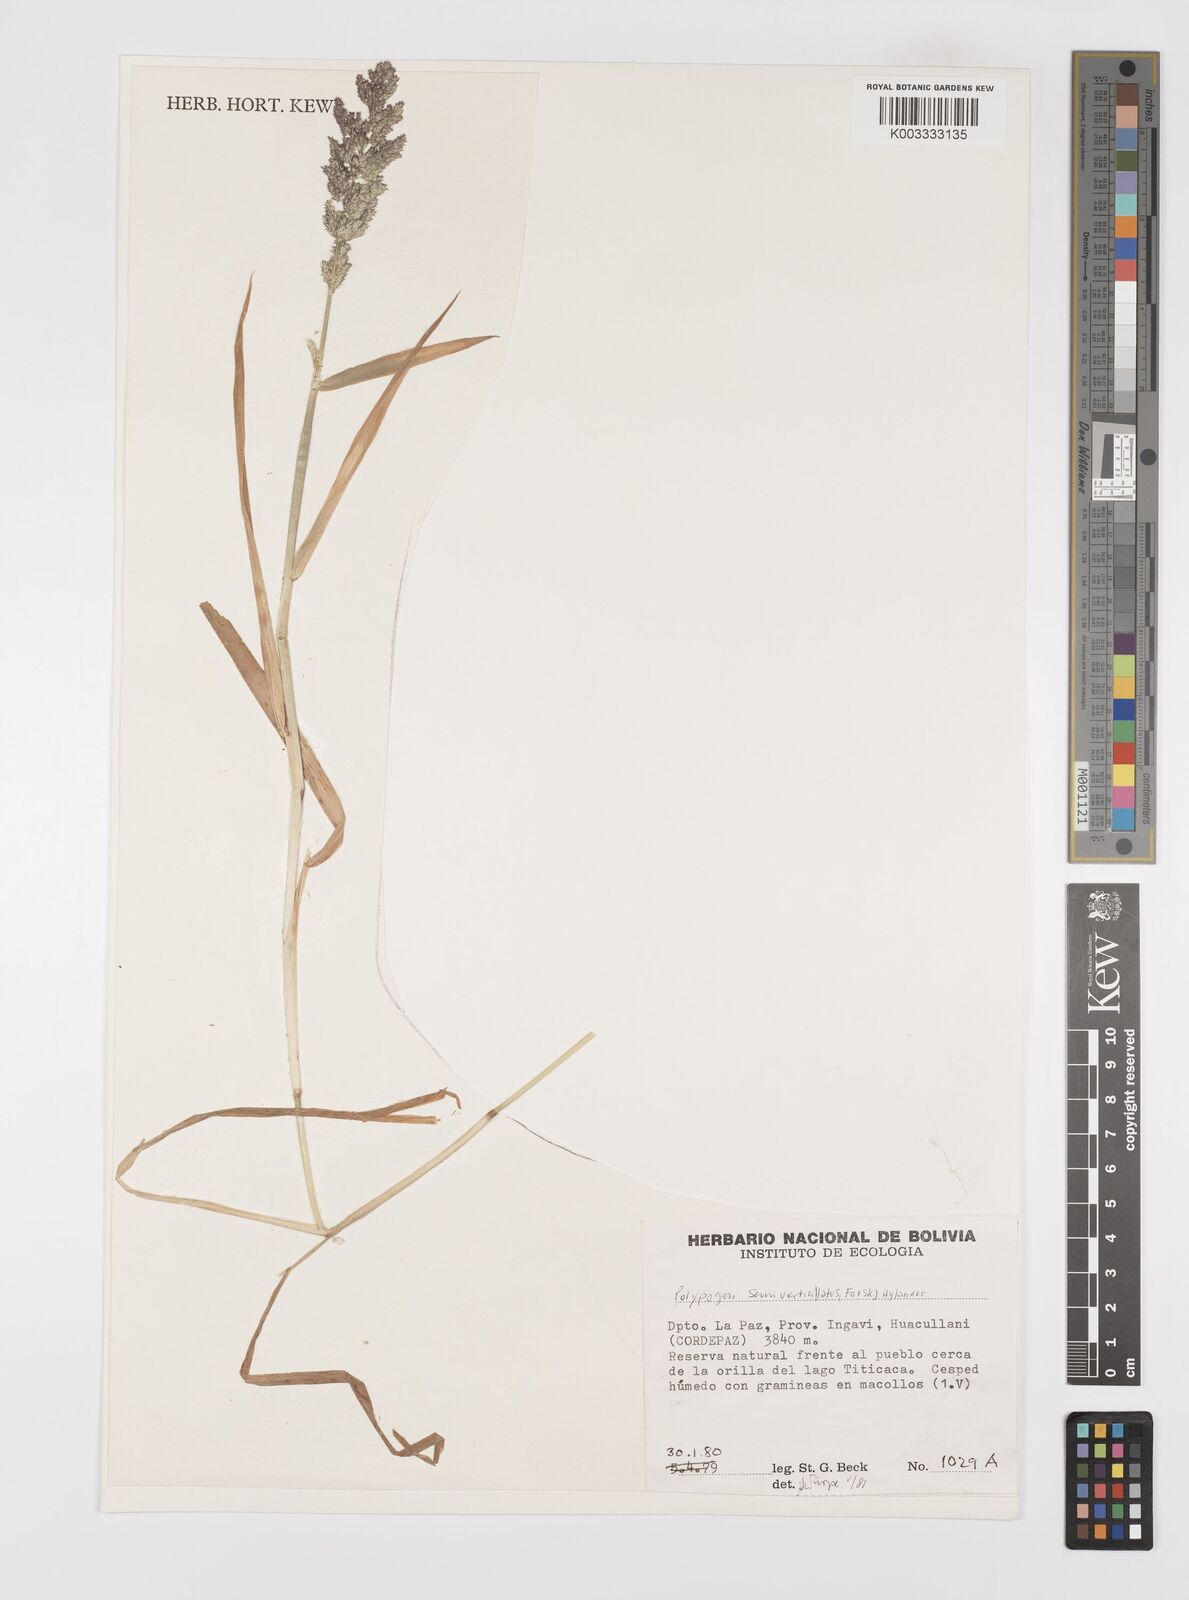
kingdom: Plantae
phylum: Tracheophyta
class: Liliopsida
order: Poales
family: Poaceae
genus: Polypogon
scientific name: Polypogon viridis
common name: Water bent
